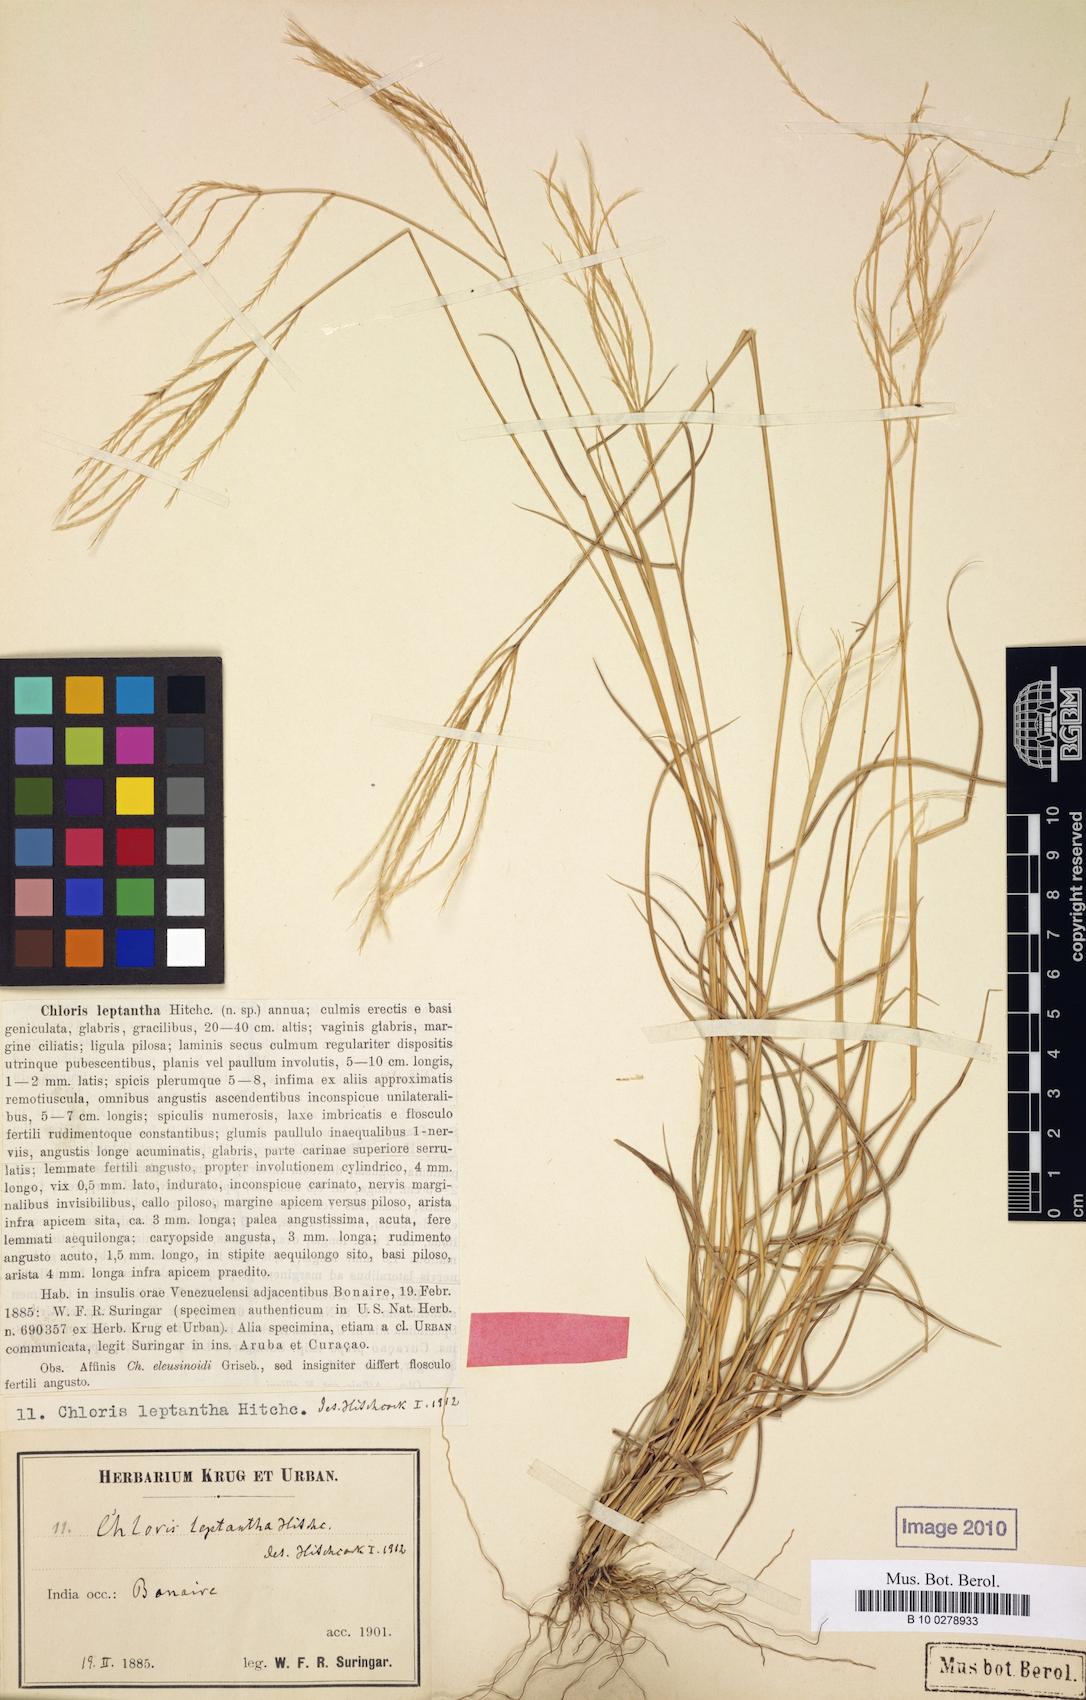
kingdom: Plantae
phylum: Tracheophyta
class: Liliopsida
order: Poales
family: Poaceae
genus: Leptochloa
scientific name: Leptochloa anisopoda
